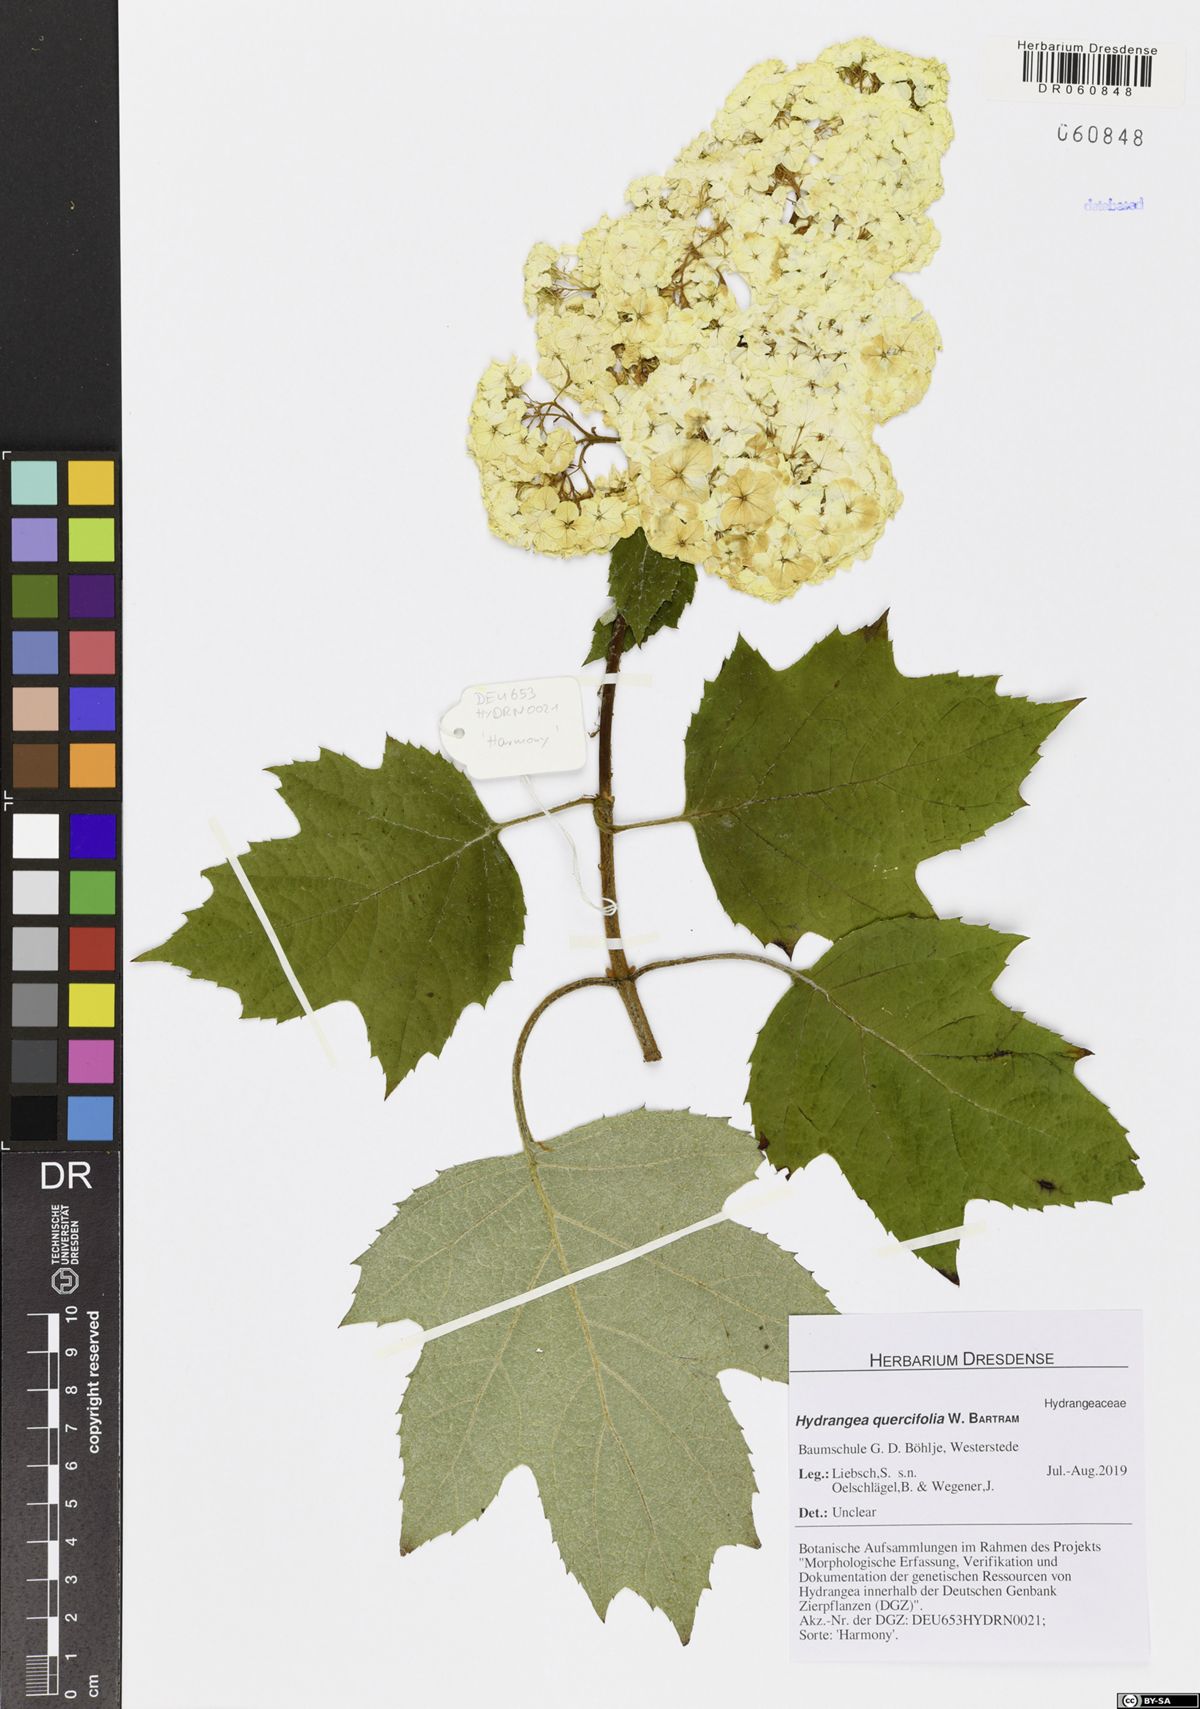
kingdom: Plantae
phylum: Tracheophyta
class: Magnoliopsida
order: Cornales
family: Hydrangeaceae
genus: Hydrangea
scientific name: Hydrangea quercifolia
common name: Oak-leaf hydrangea
